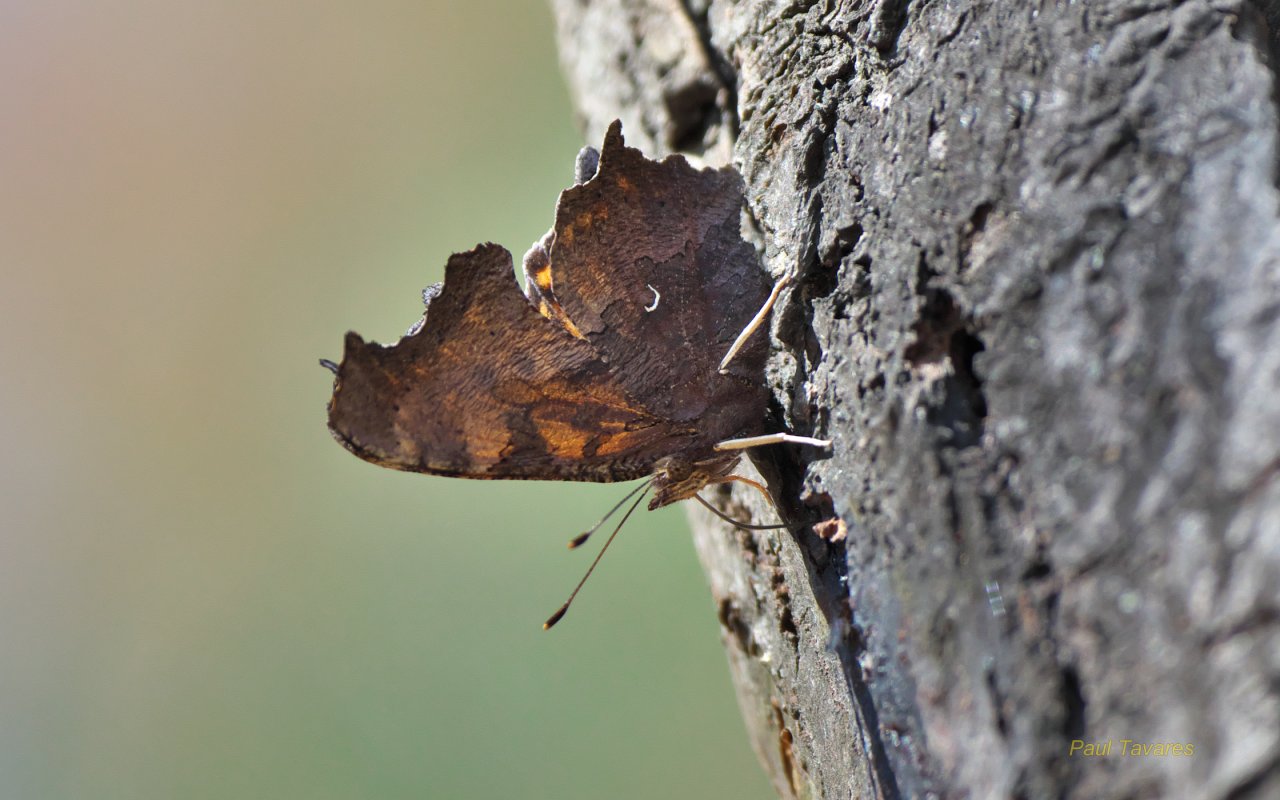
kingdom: Animalia
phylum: Arthropoda
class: Insecta
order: Lepidoptera
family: Nymphalidae
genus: Polygonia
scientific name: Polygonia comma
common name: Eastern Comma
